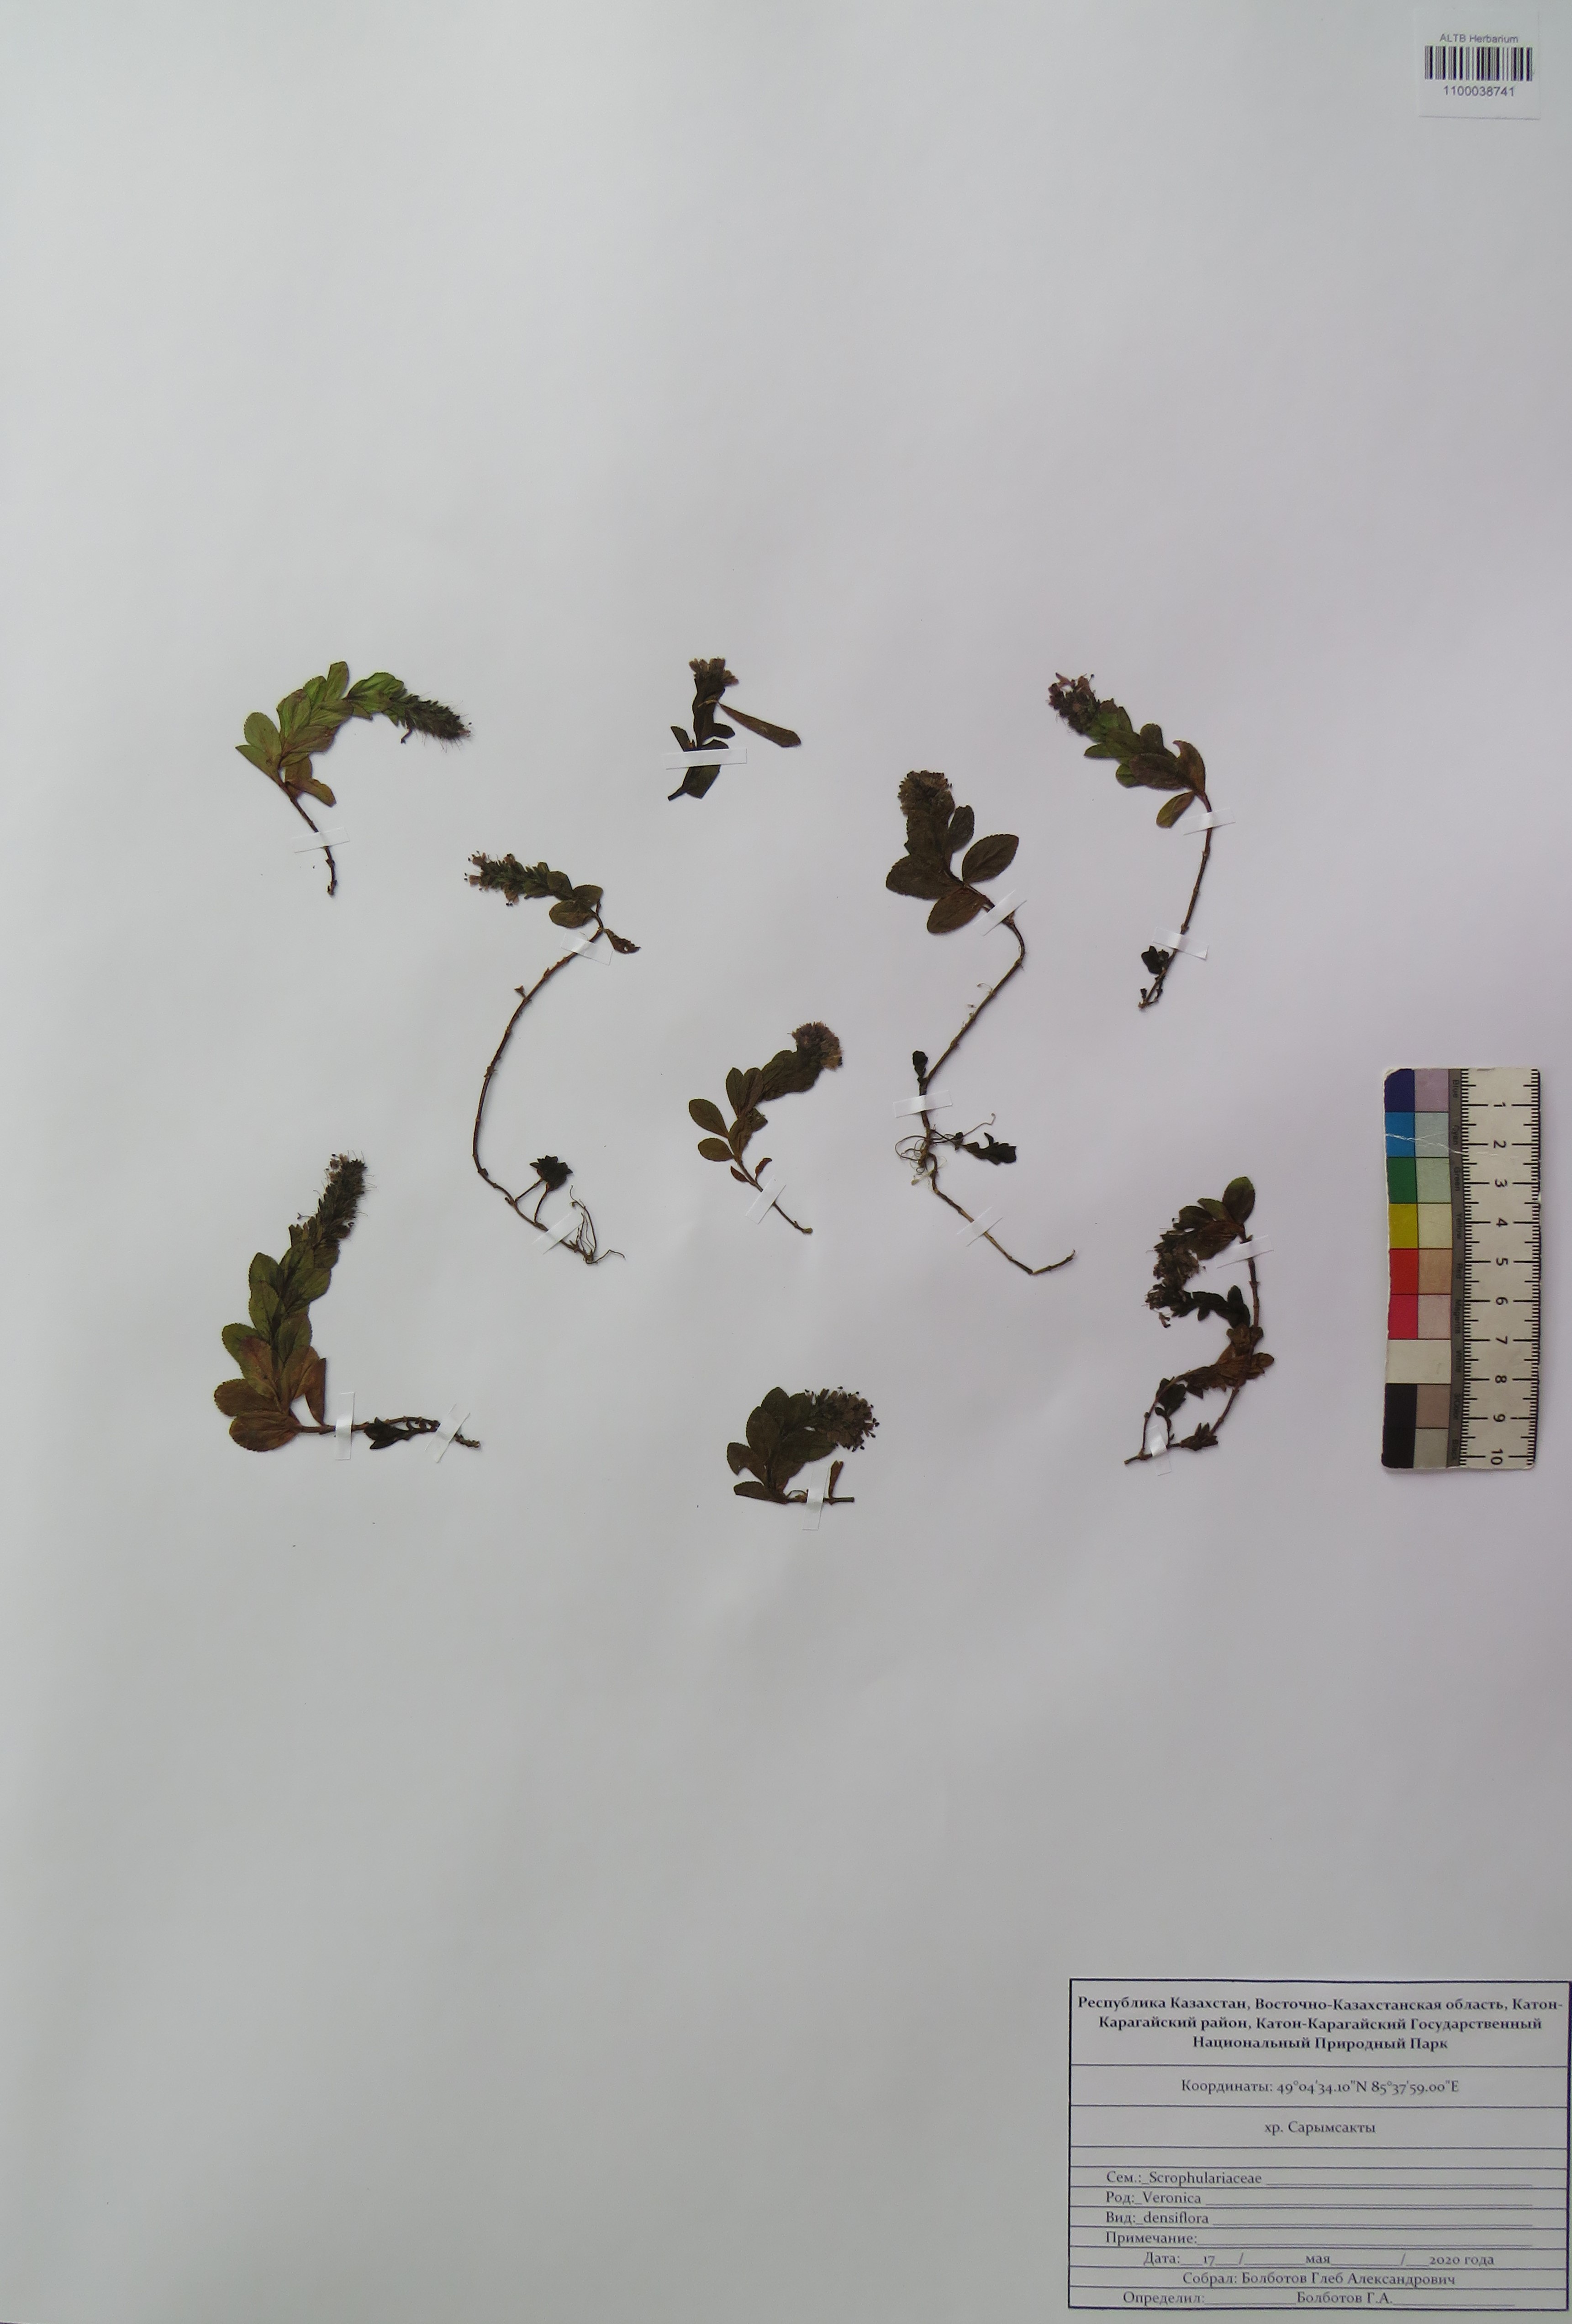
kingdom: Plantae
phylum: Tracheophyta
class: Magnoliopsida
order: Lamiales
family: Plantaginaceae
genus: Veronica
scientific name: Veronica densiflora
